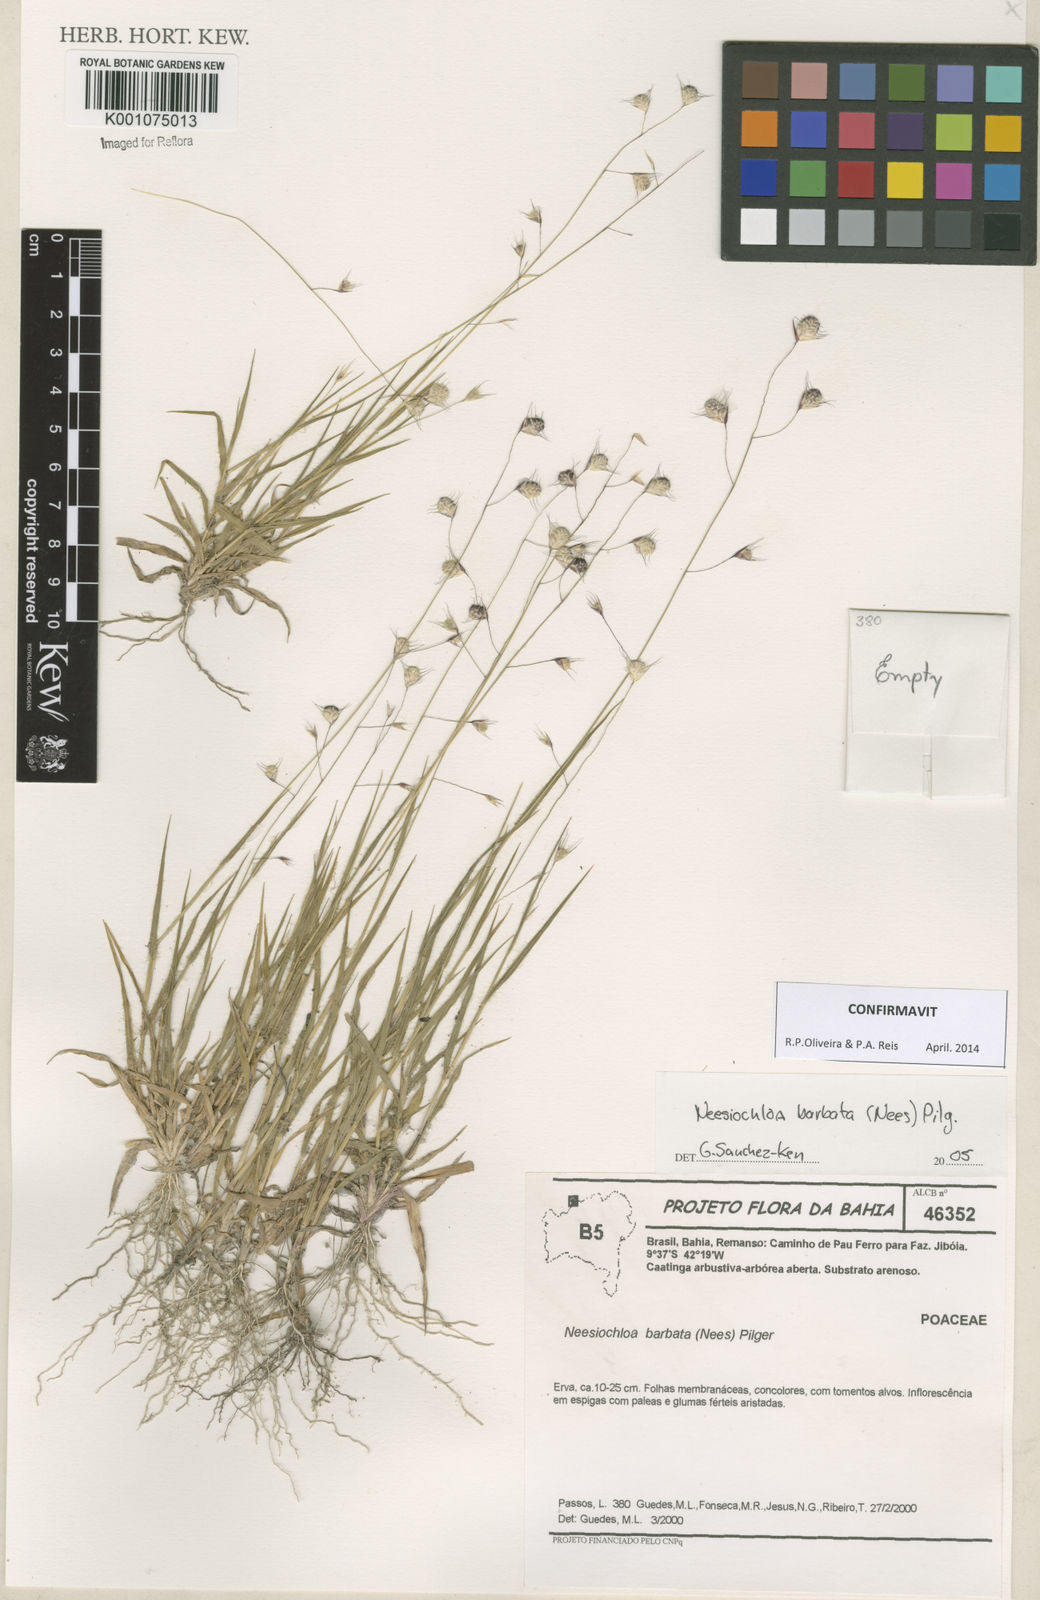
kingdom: Plantae
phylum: Tracheophyta
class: Liliopsida
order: Poales
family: Poaceae
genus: Neesiochloa
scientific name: Neesiochloa barbata
